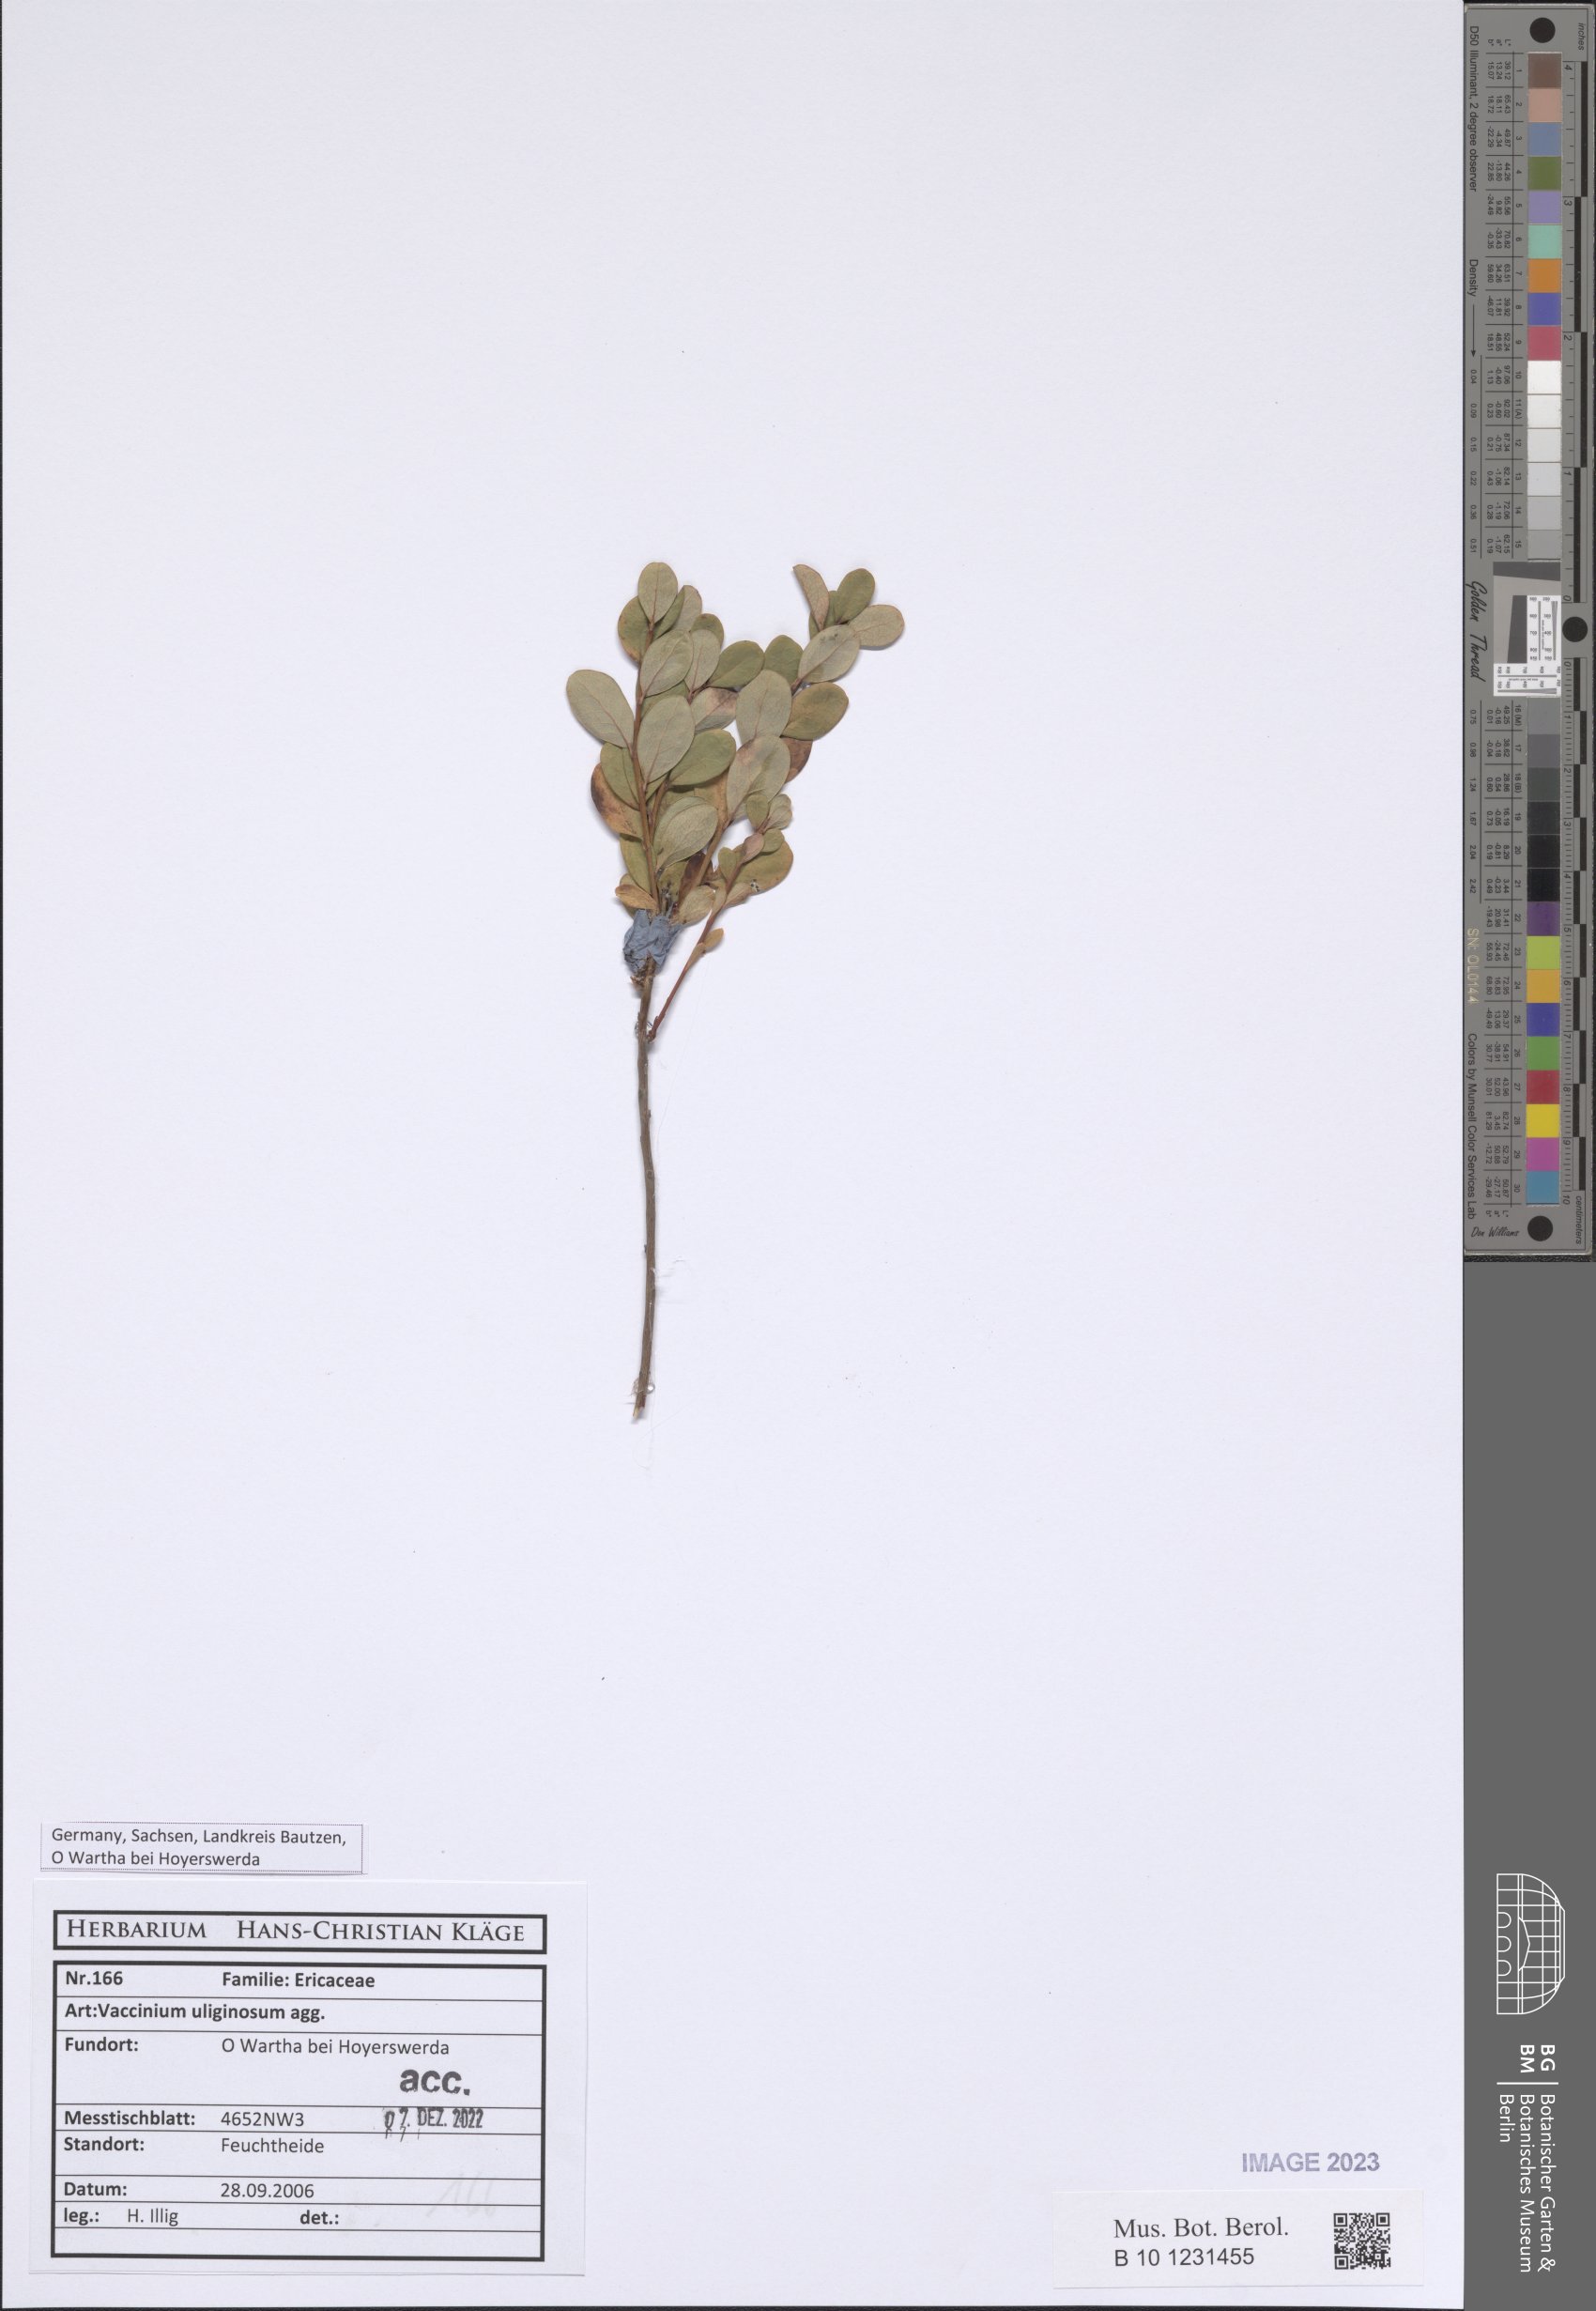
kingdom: Plantae
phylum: Tracheophyta
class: Magnoliopsida
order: Ericales
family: Ericaceae
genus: Vaccinium
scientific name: Vaccinium uliginosum
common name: Bog bilberry
